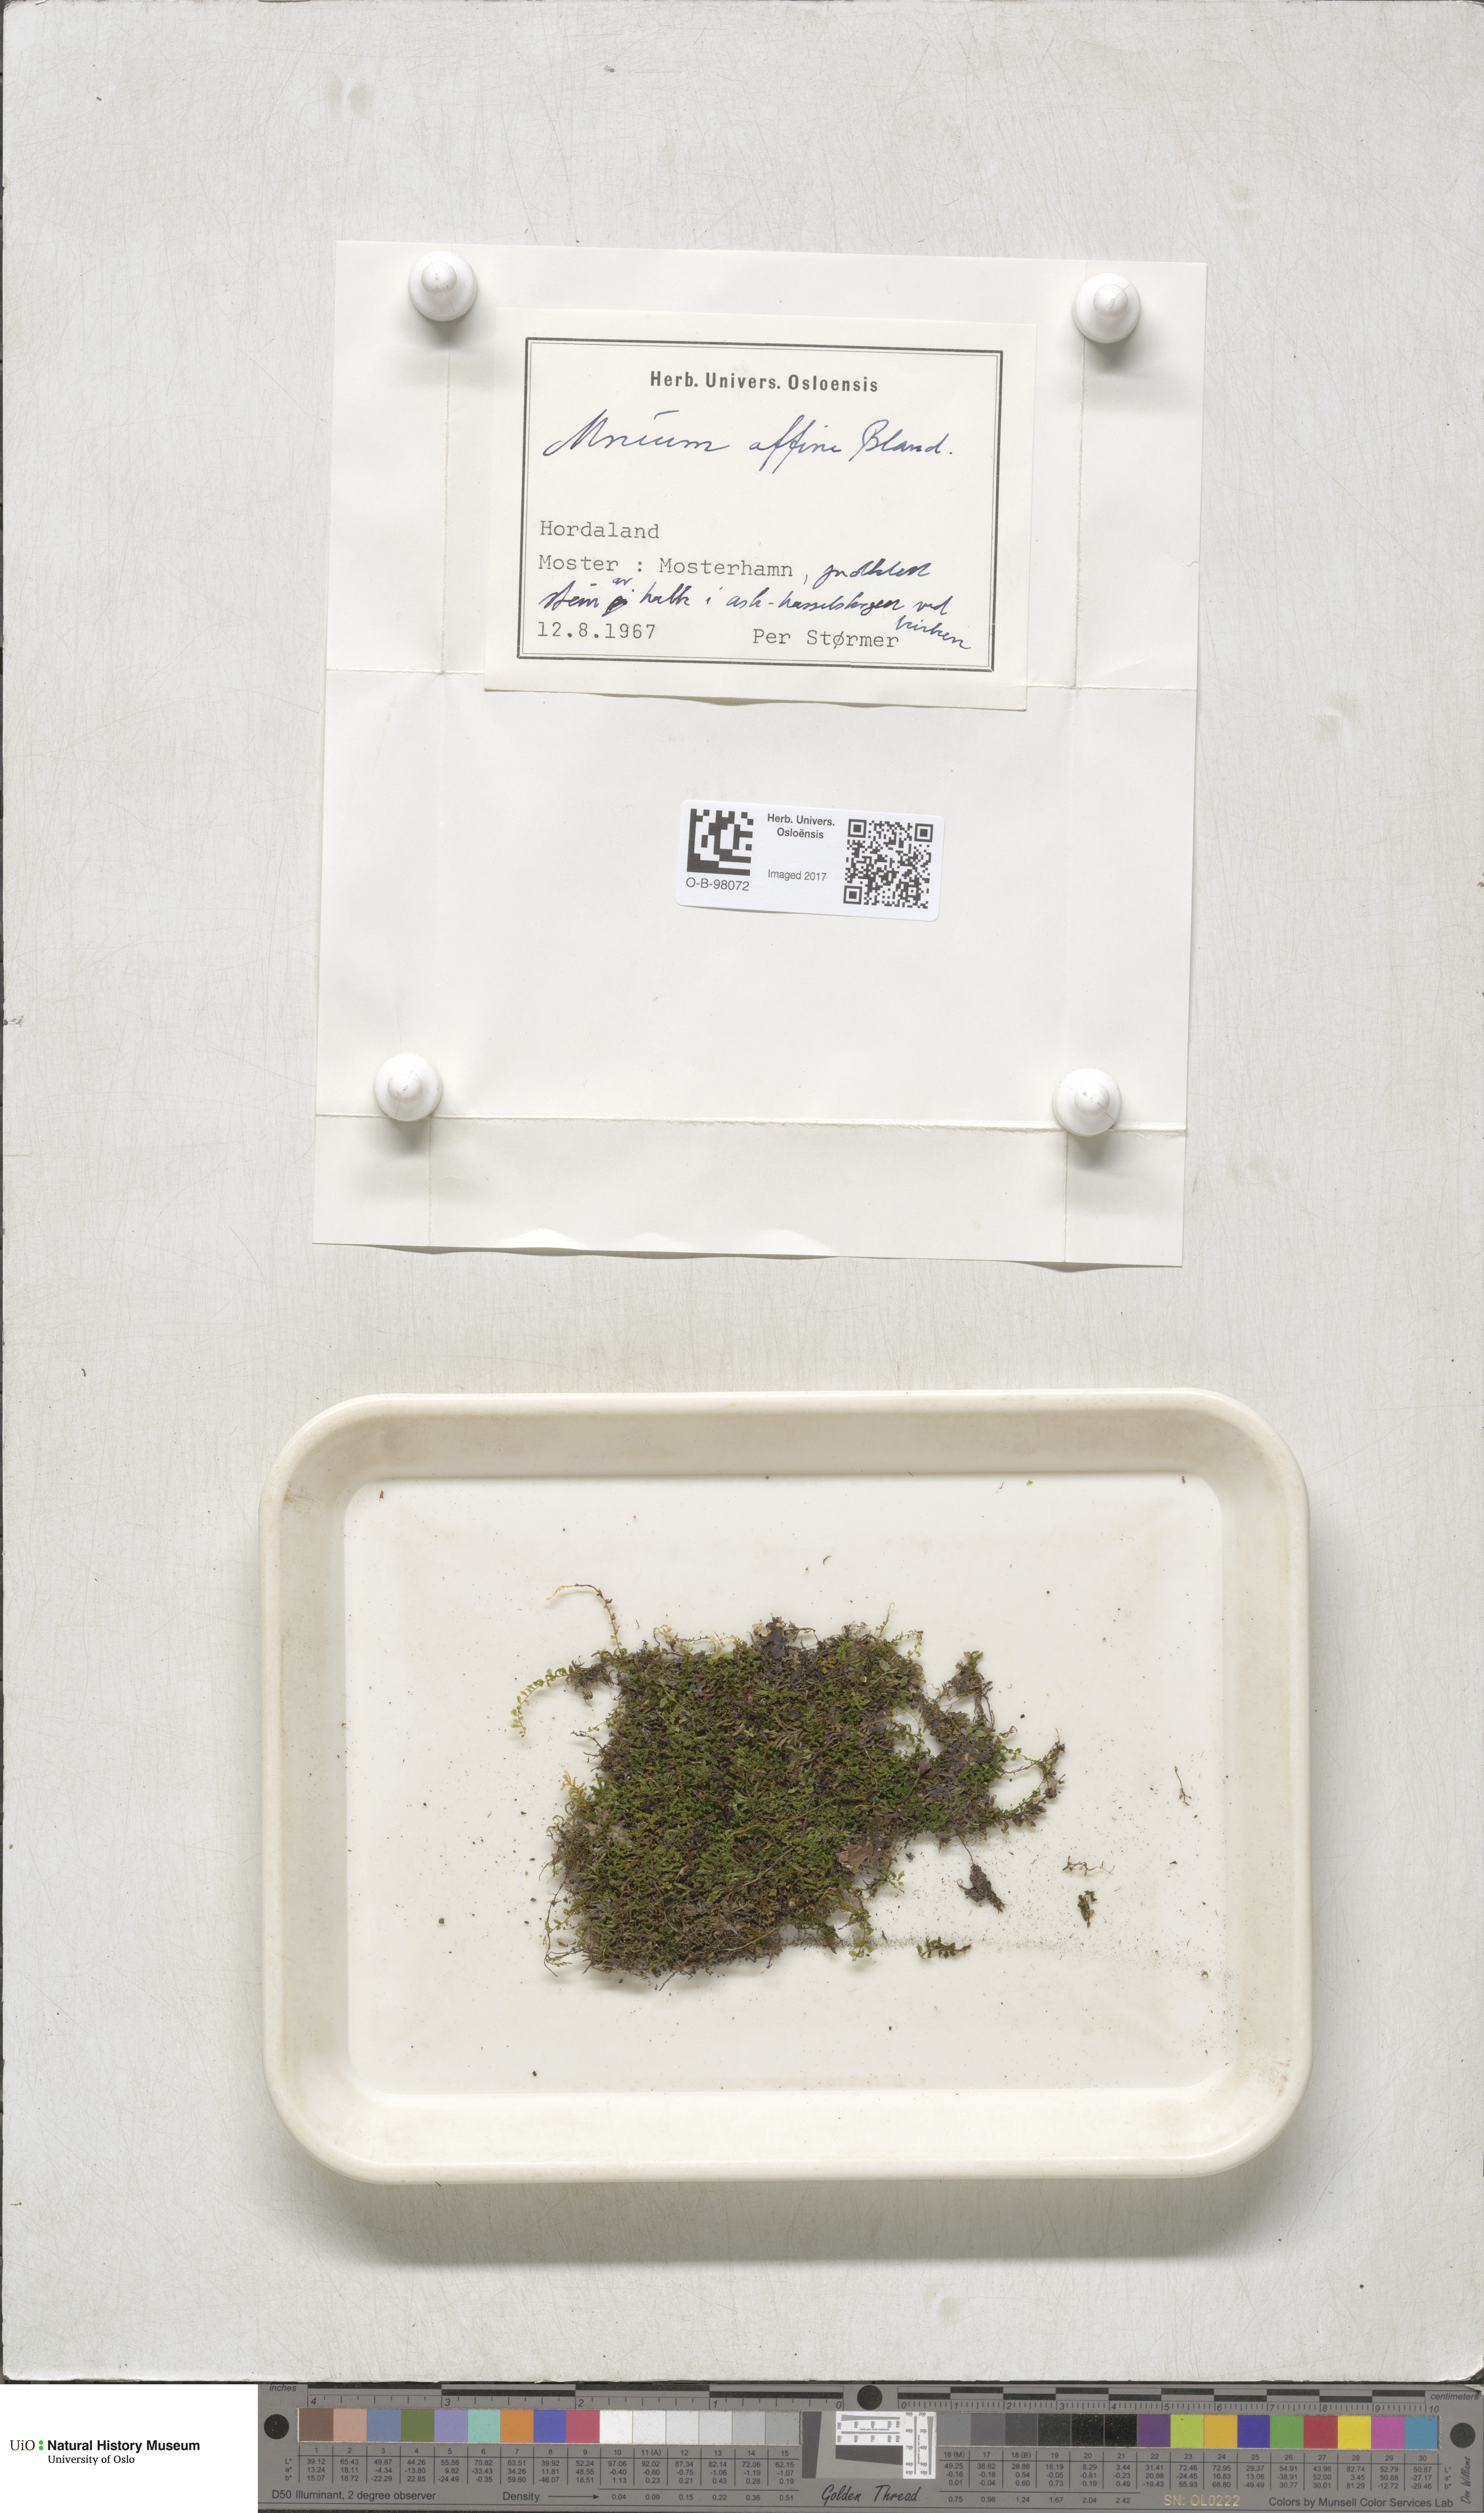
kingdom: Plantae
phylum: Bryophyta
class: Bryopsida
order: Bryales
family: Mniaceae
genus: Plagiomnium
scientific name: Plagiomnium affine
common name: Many-fruited thyme-moss
